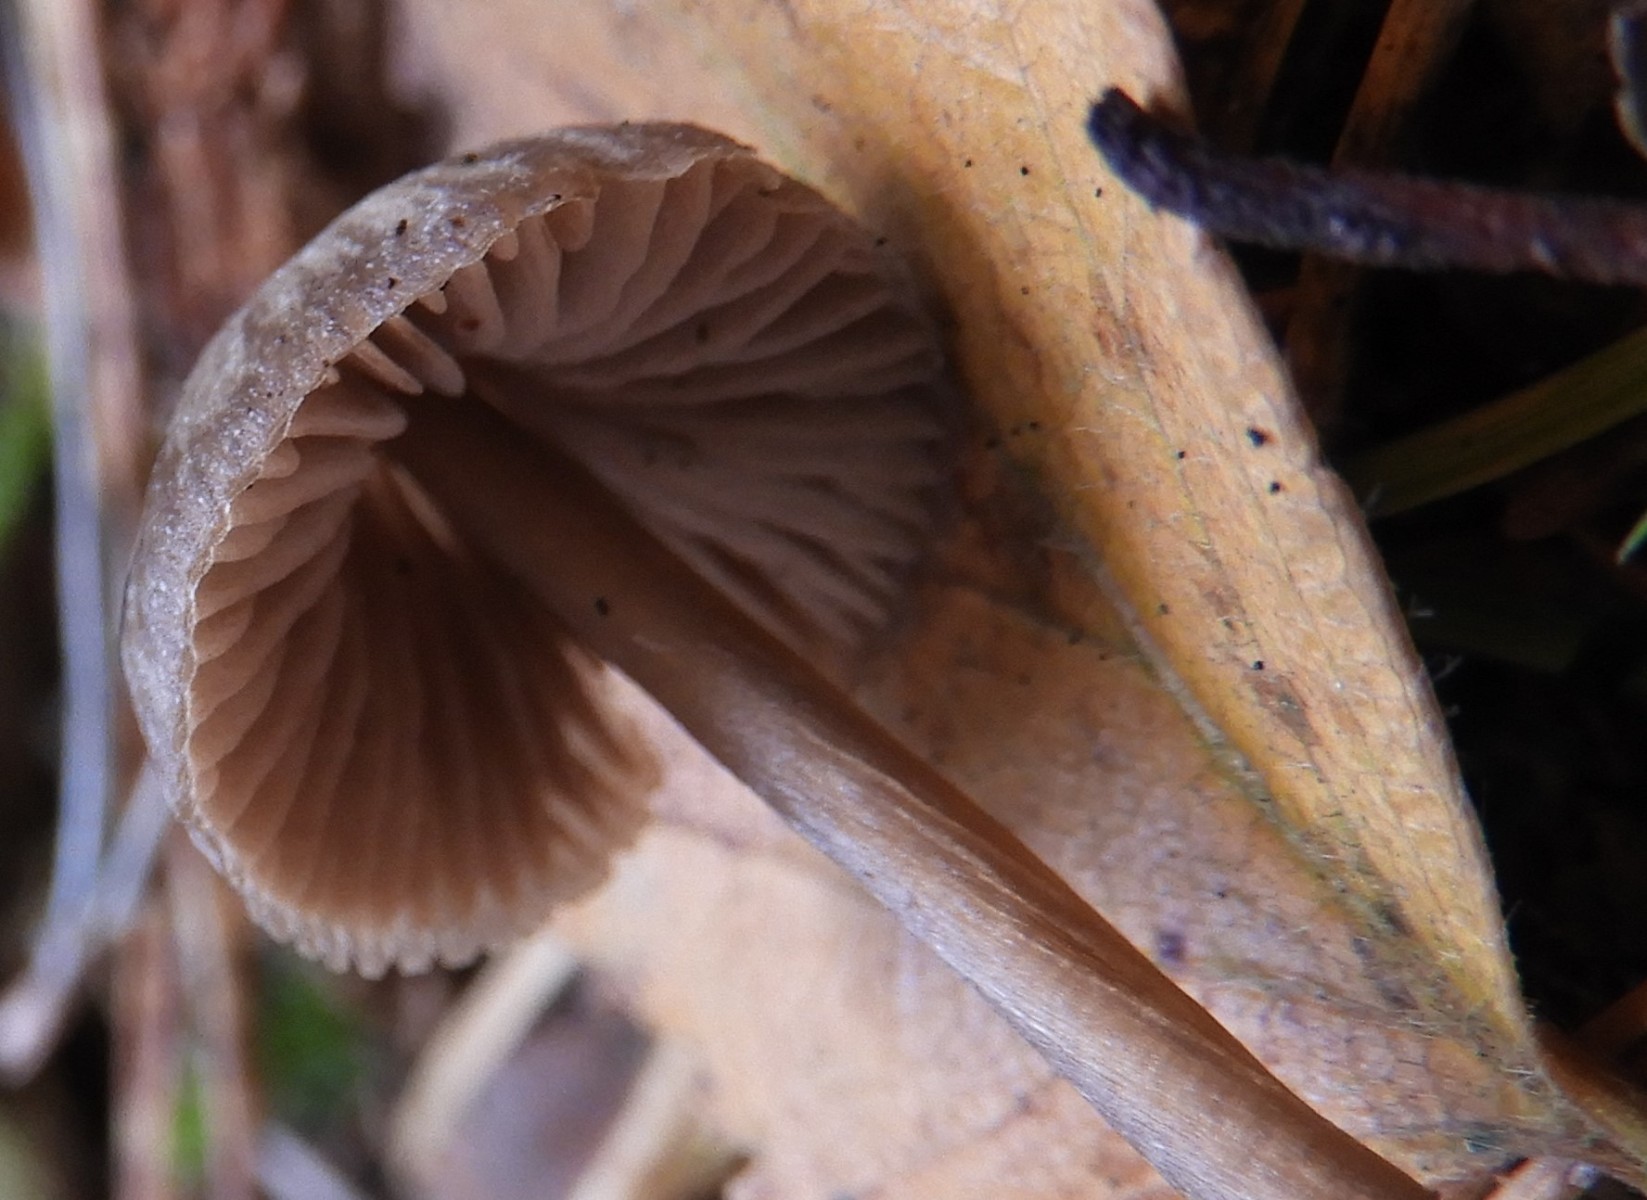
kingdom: Fungi
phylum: Basidiomycota
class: Agaricomycetes
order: Agaricales
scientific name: Agaricales
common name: champignonordenen
